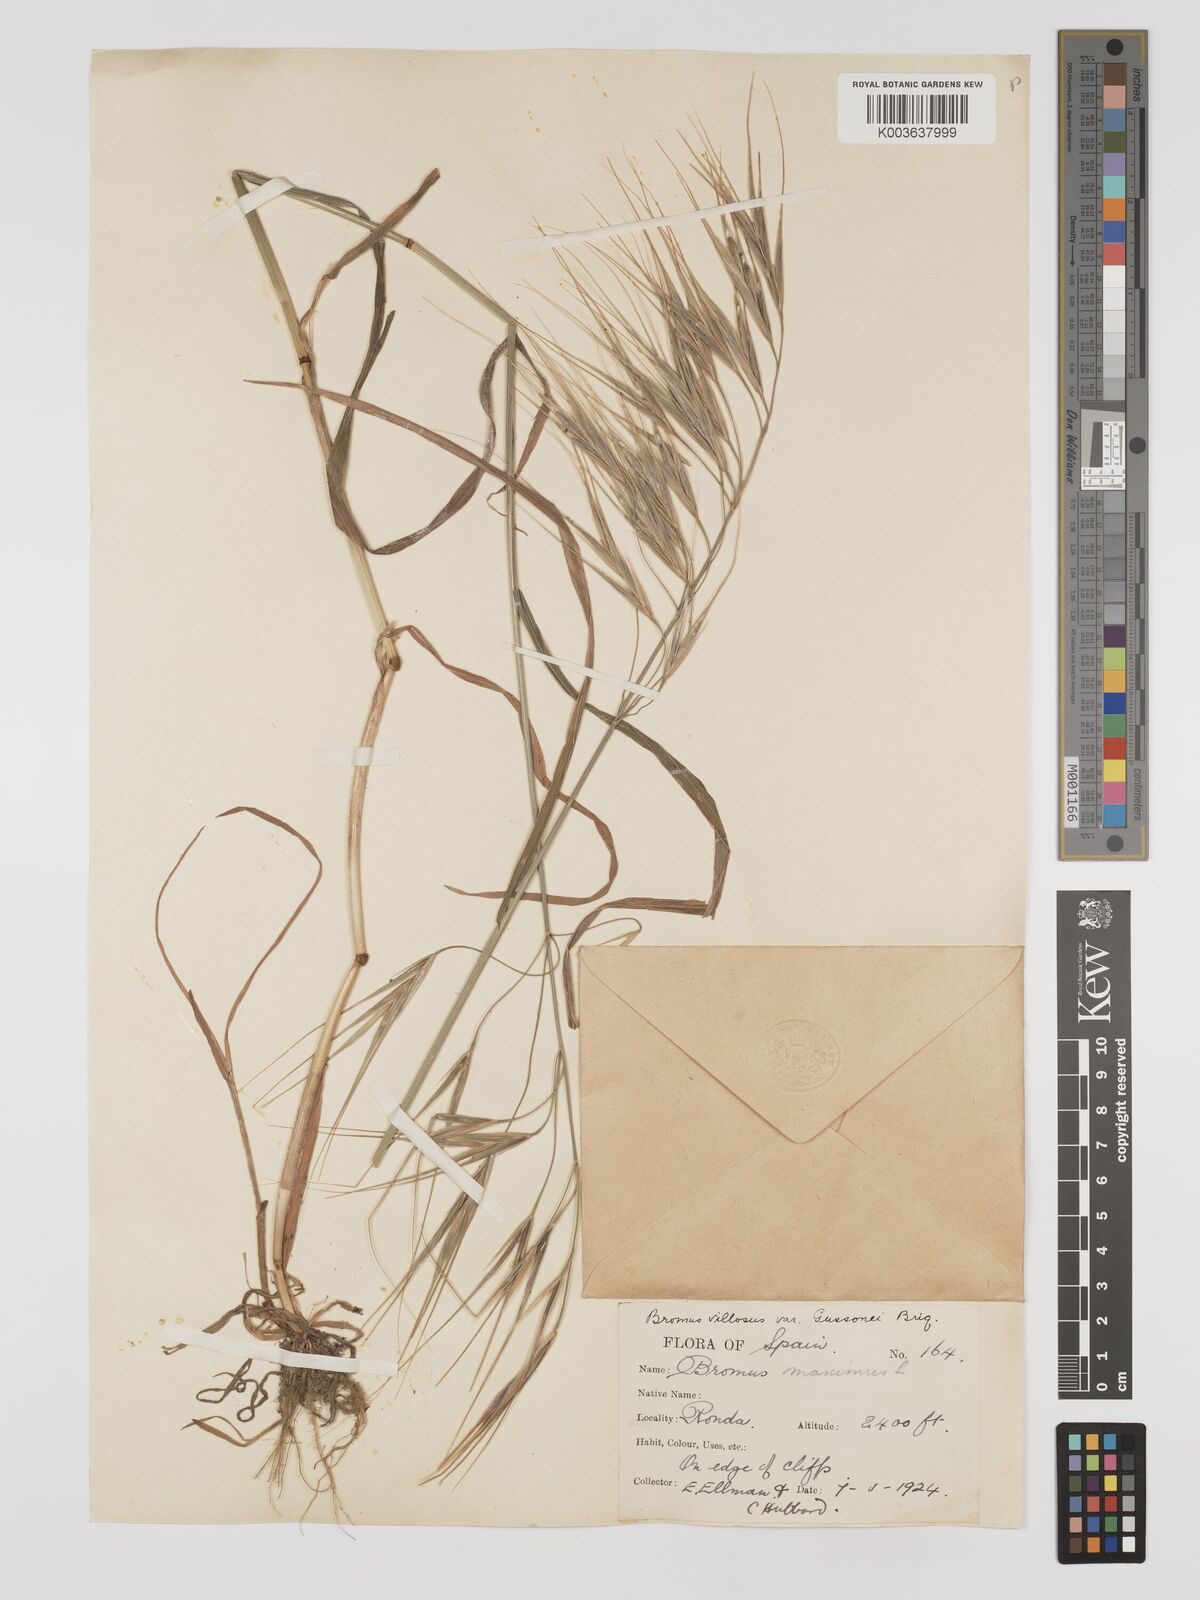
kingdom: Plantae
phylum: Tracheophyta
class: Liliopsida
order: Poales
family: Poaceae
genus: Bromus
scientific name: Bromus
